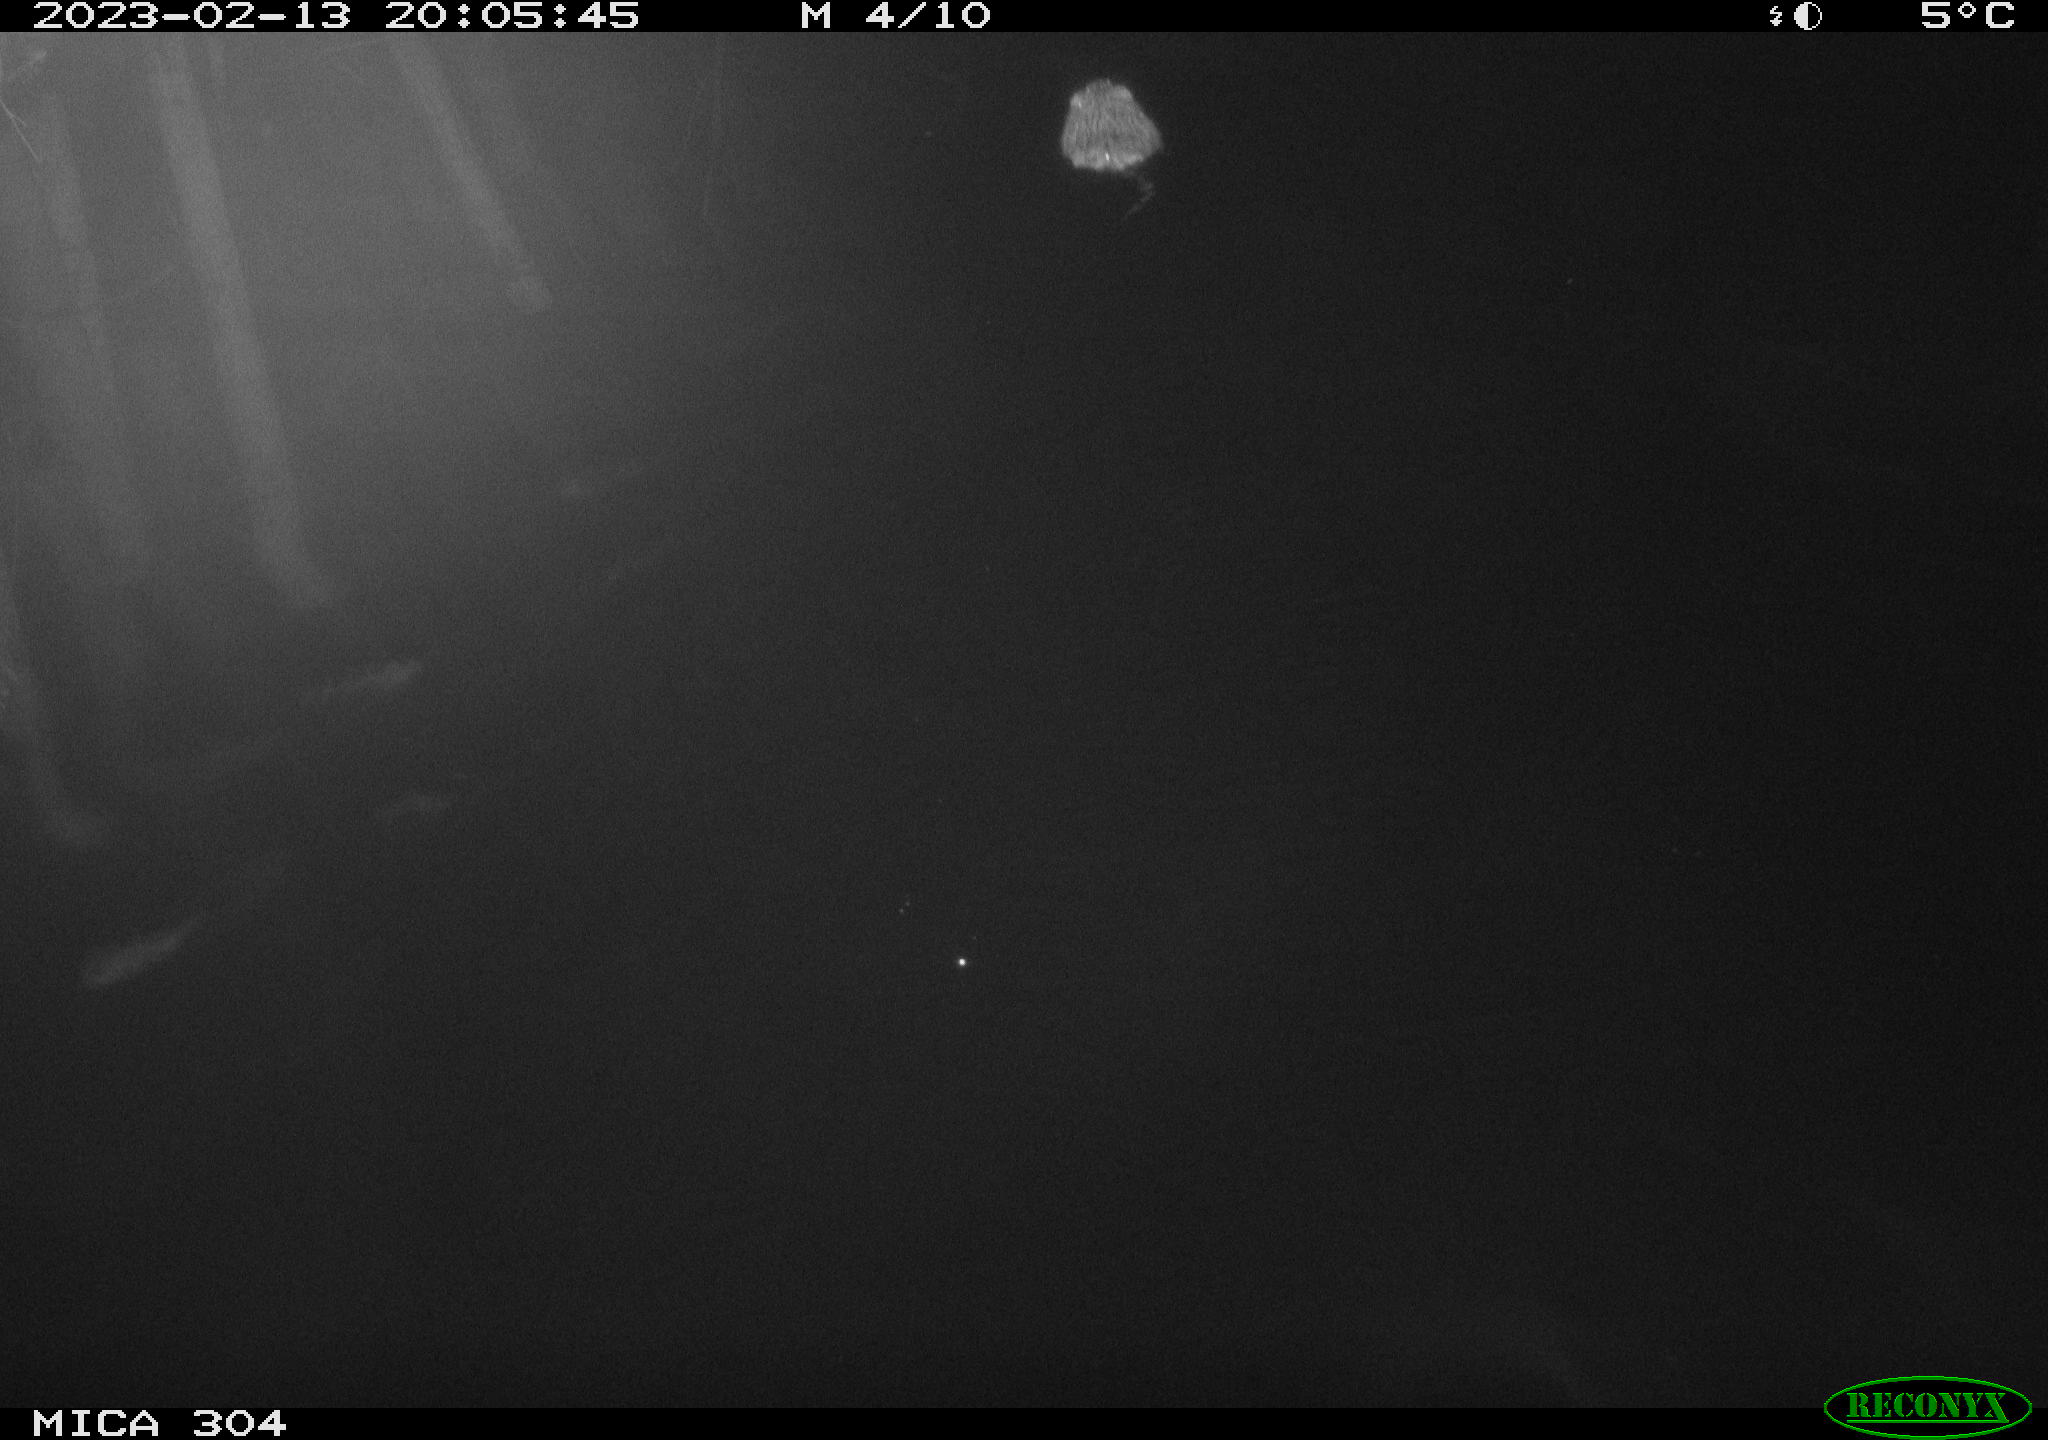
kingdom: Animalia
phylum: Chordata
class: Mammalia
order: Rodentia
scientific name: Rodentia
